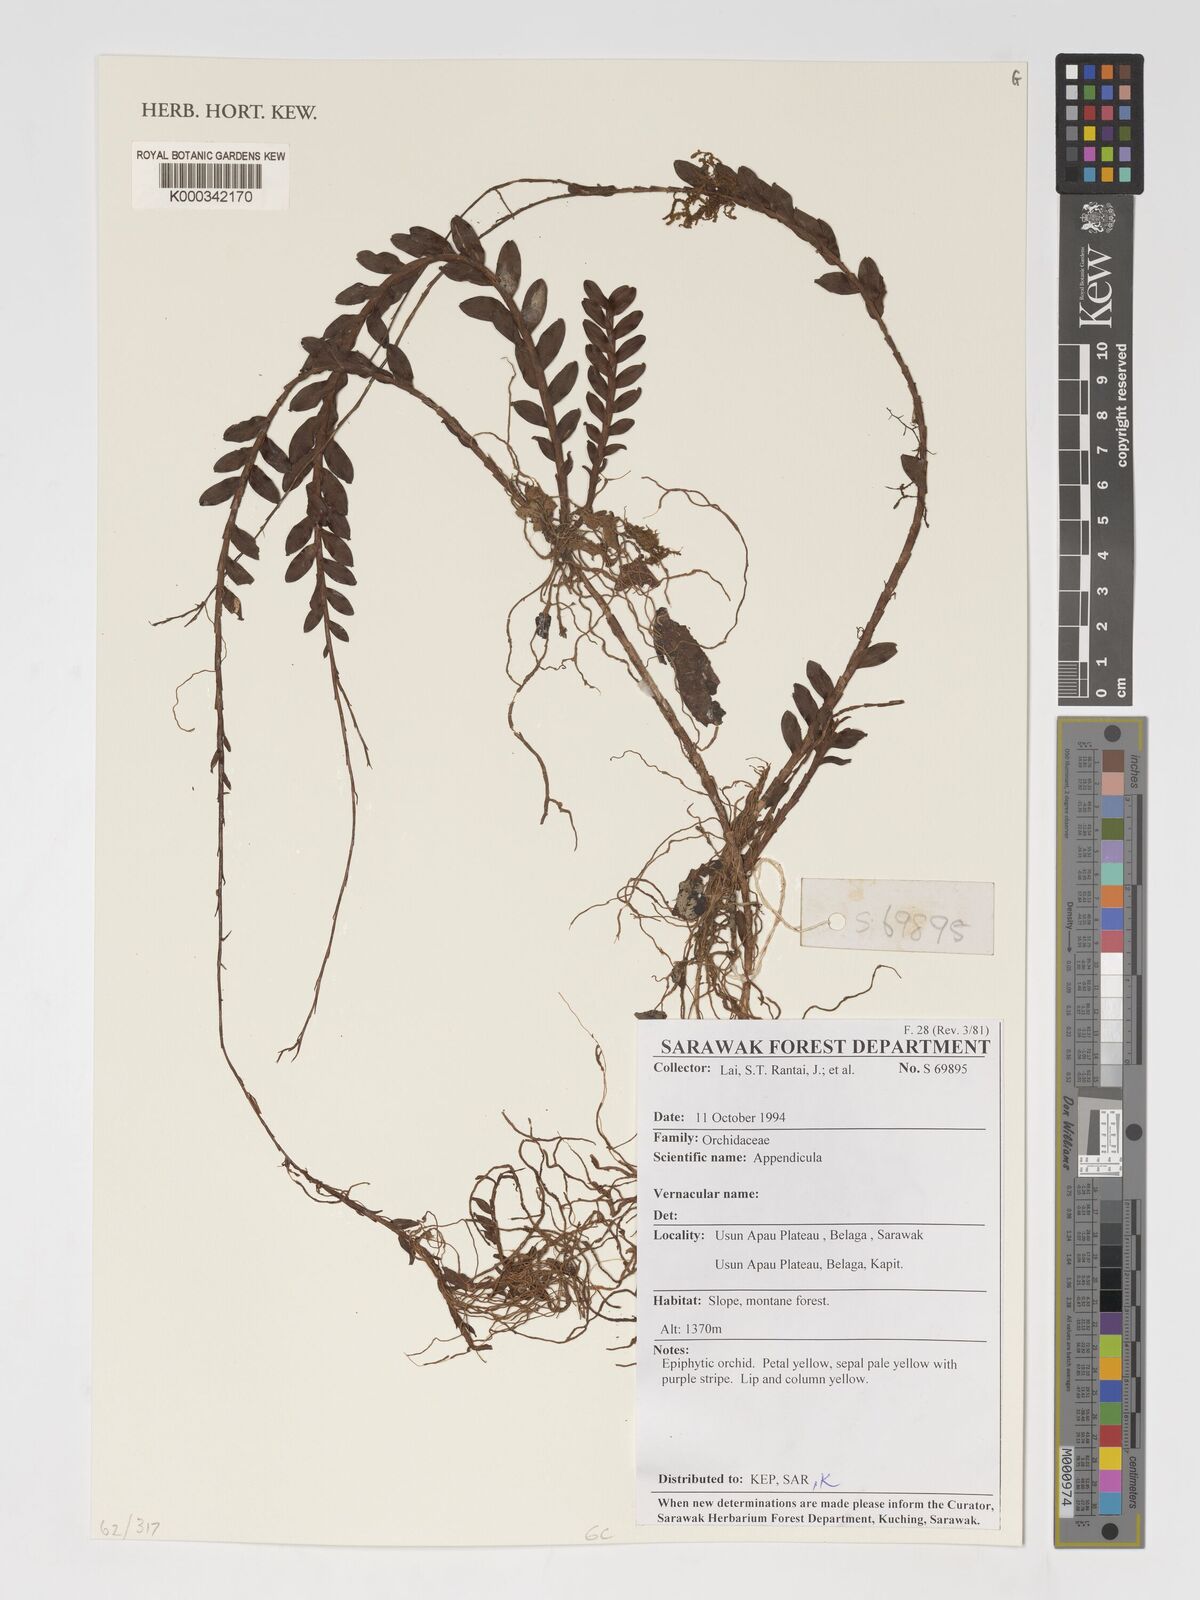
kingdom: Plantae
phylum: Tracheophyta
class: Liliopsida
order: Asparagales
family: Orchidaceae
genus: Appendicula
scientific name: Appendicula
